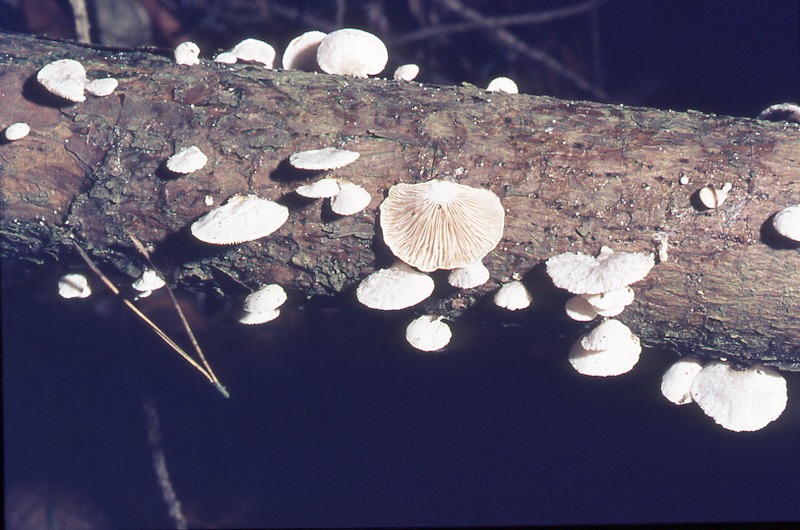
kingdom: Plantae
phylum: Tracheophyta
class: Pinopsida
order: Pinales
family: Pinaceae
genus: Pinus
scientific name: Pinus sylvestris
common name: Scots pine
